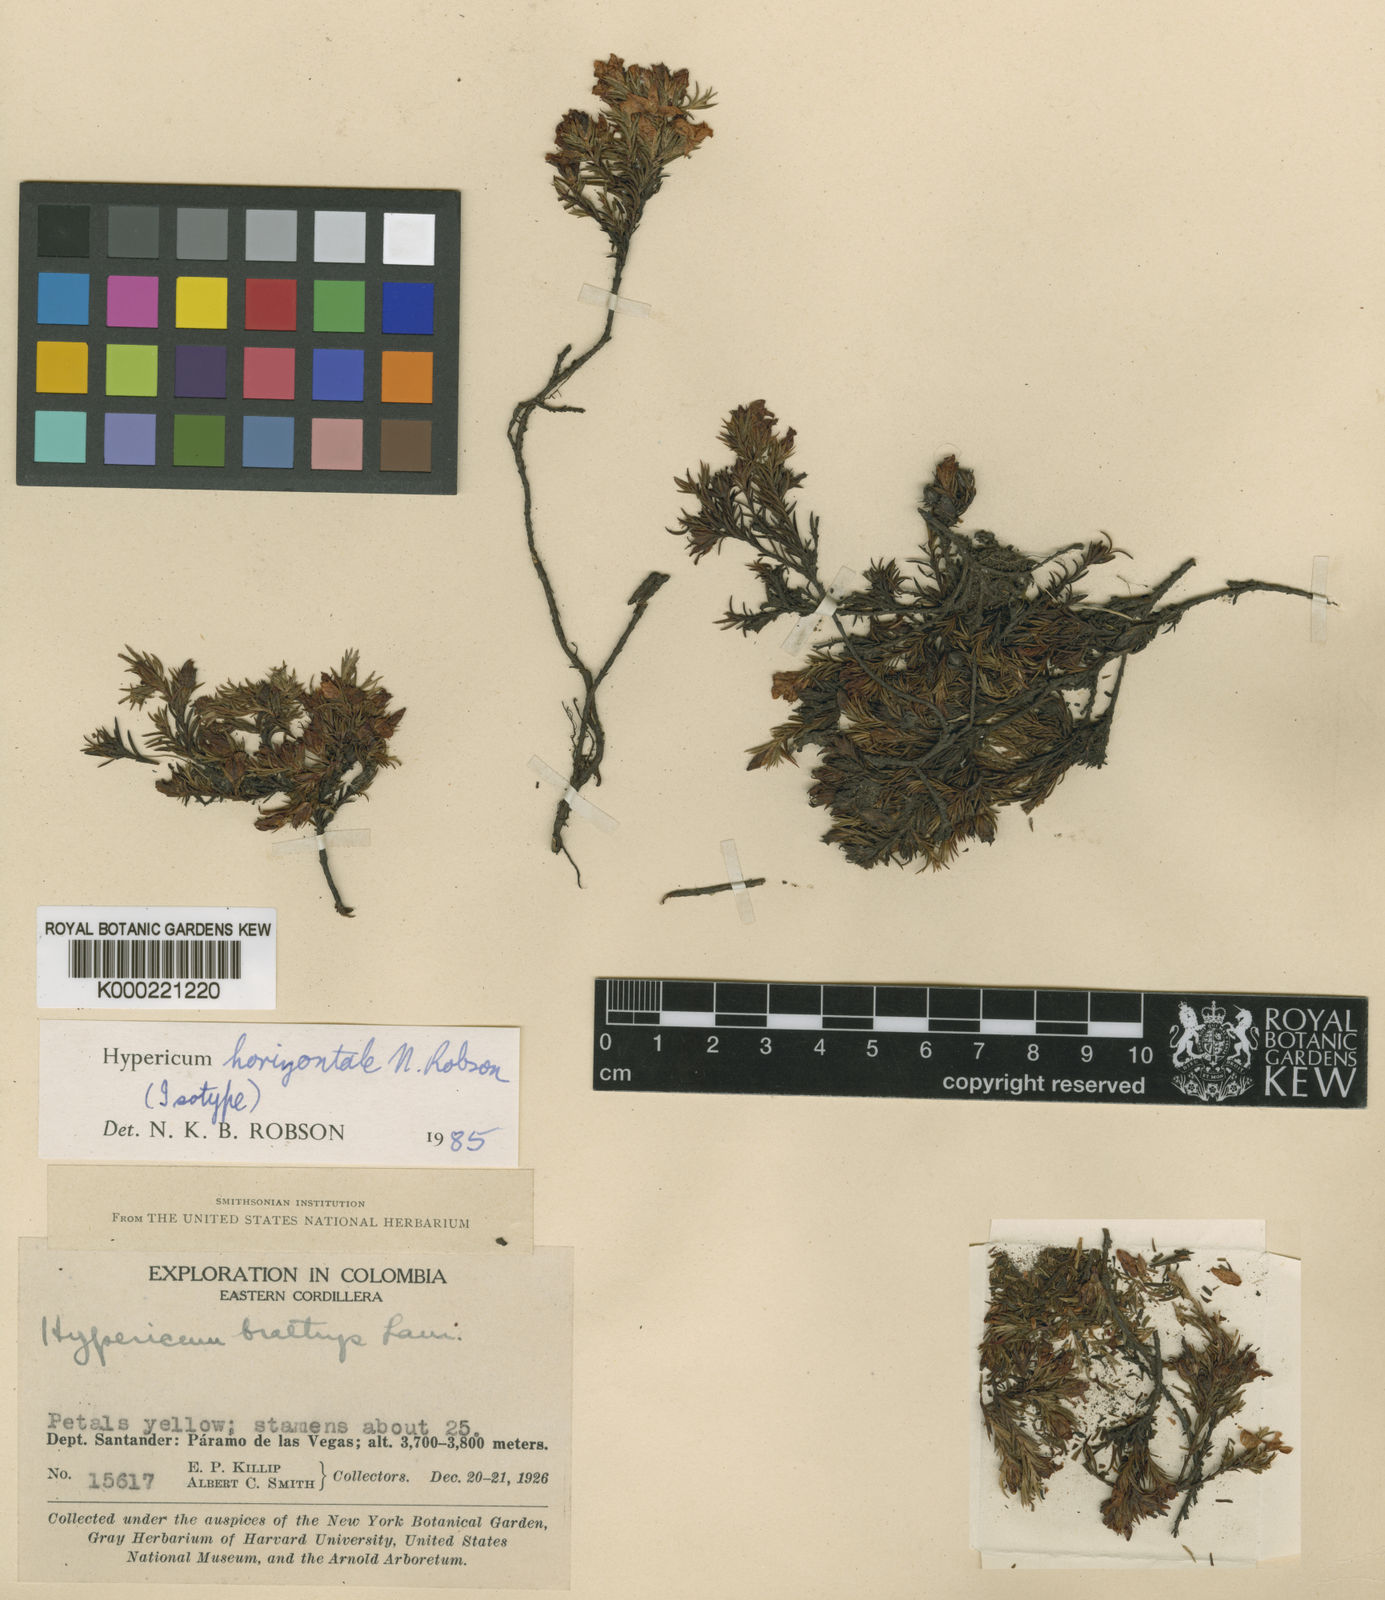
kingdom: Plantae
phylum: Tracheophyta
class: Magnoliopsida
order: Malpighiales
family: Hypericaceae
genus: Hypericum
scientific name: Hypericum horizontale
